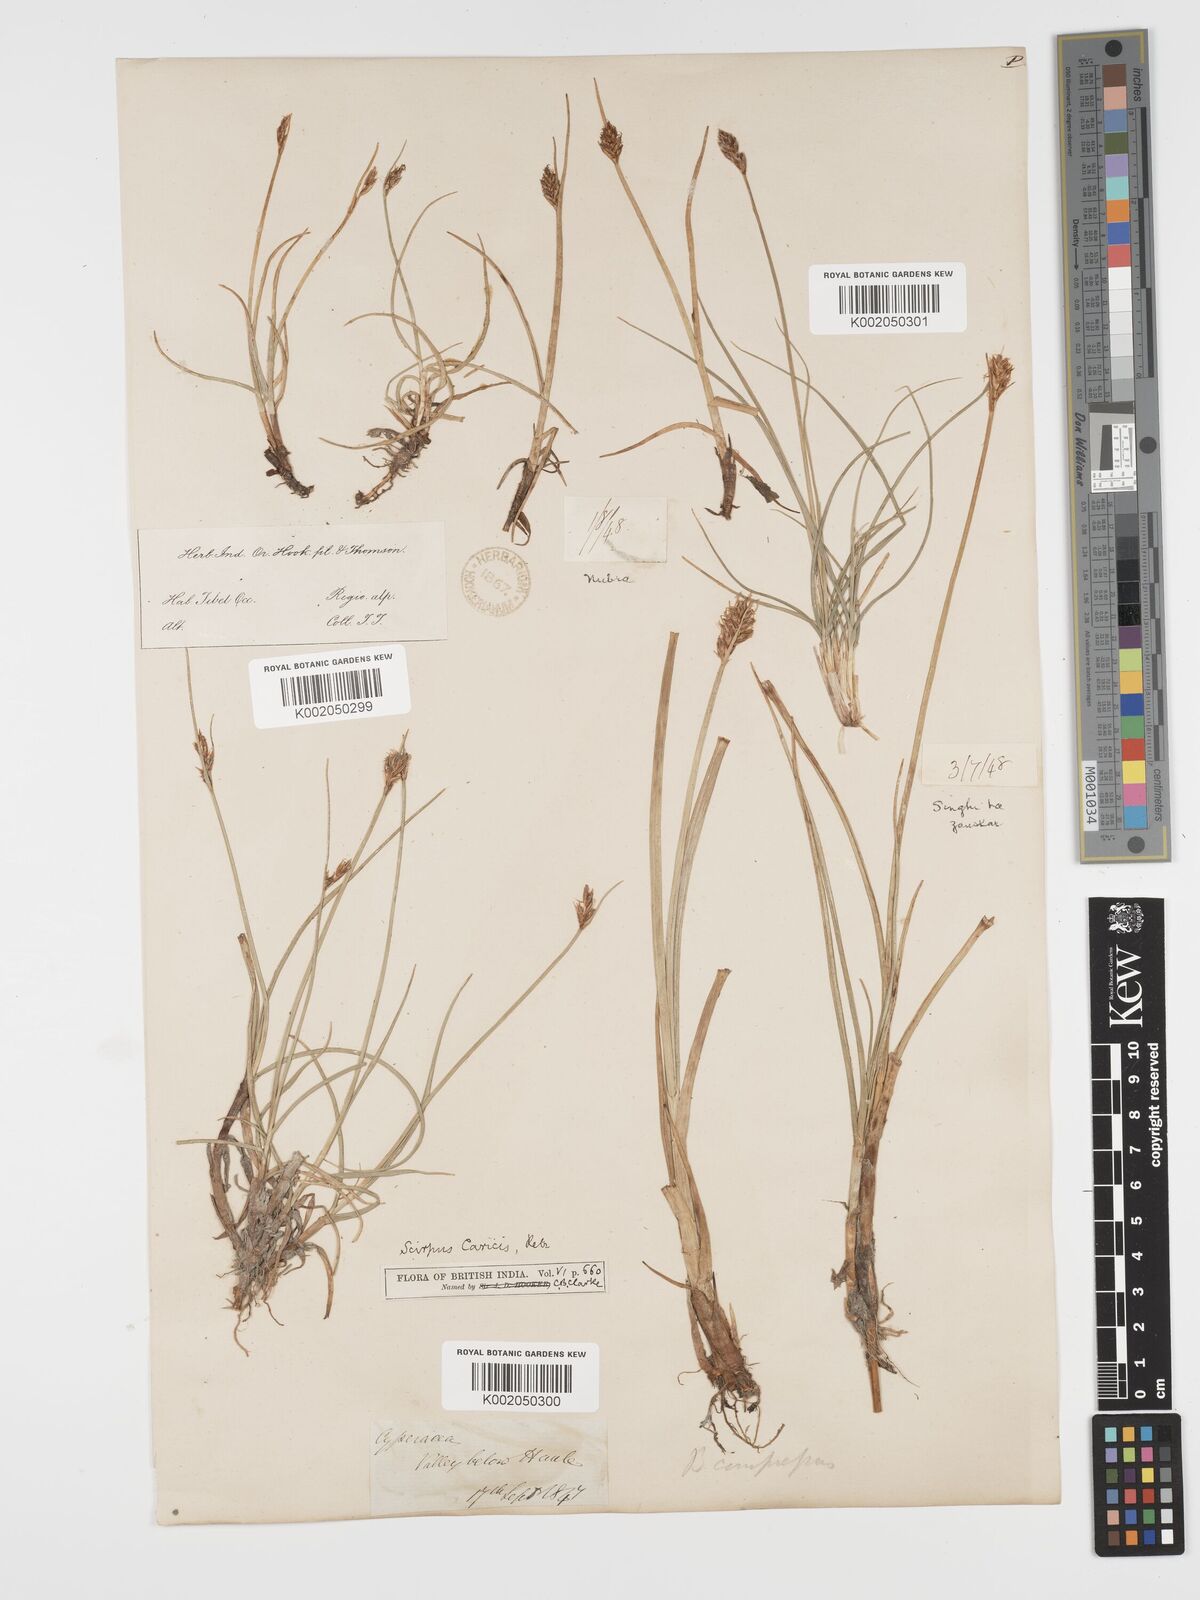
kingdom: Plantae
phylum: Tracheophyta
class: Liliopsida
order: Poales
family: Cyperaceae
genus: Blysmus
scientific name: Blysmus compressus
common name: Flat-sedge
